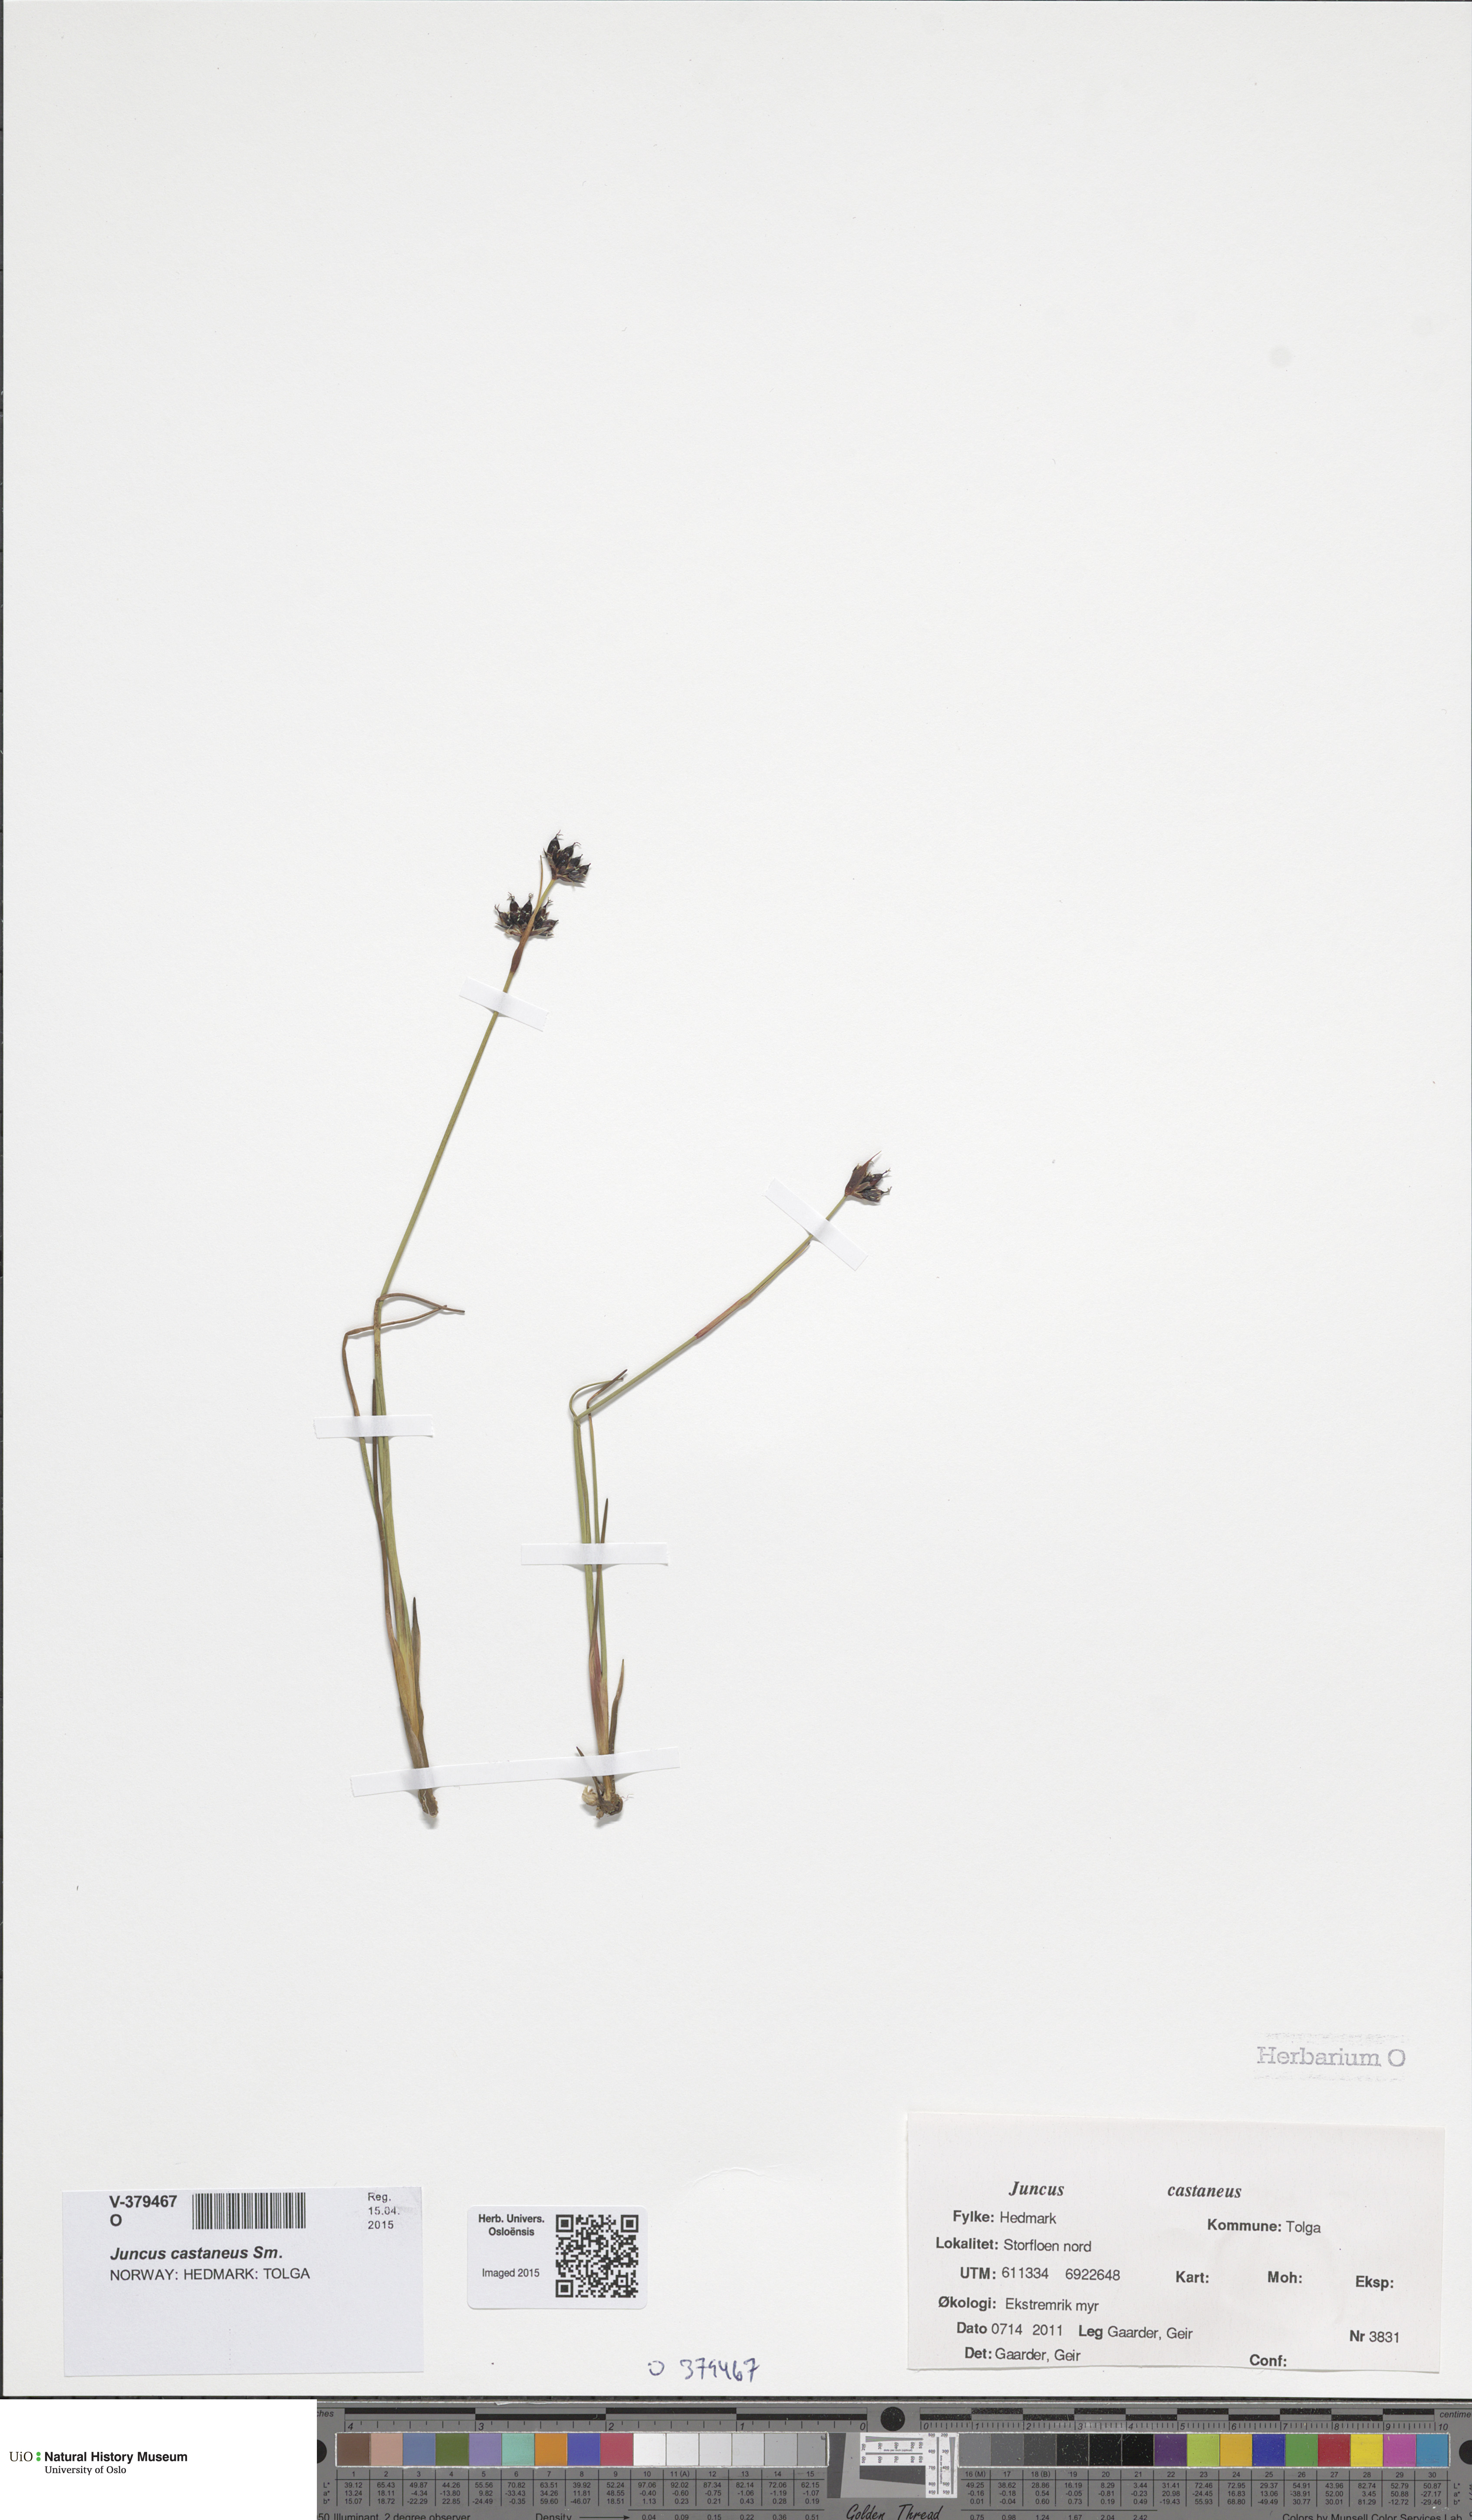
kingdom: Plantae
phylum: Tracheophyta
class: Liliopsida
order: Poales
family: Juncaceae
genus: Juncus
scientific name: Juncus castaneus
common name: Chestnut rush
